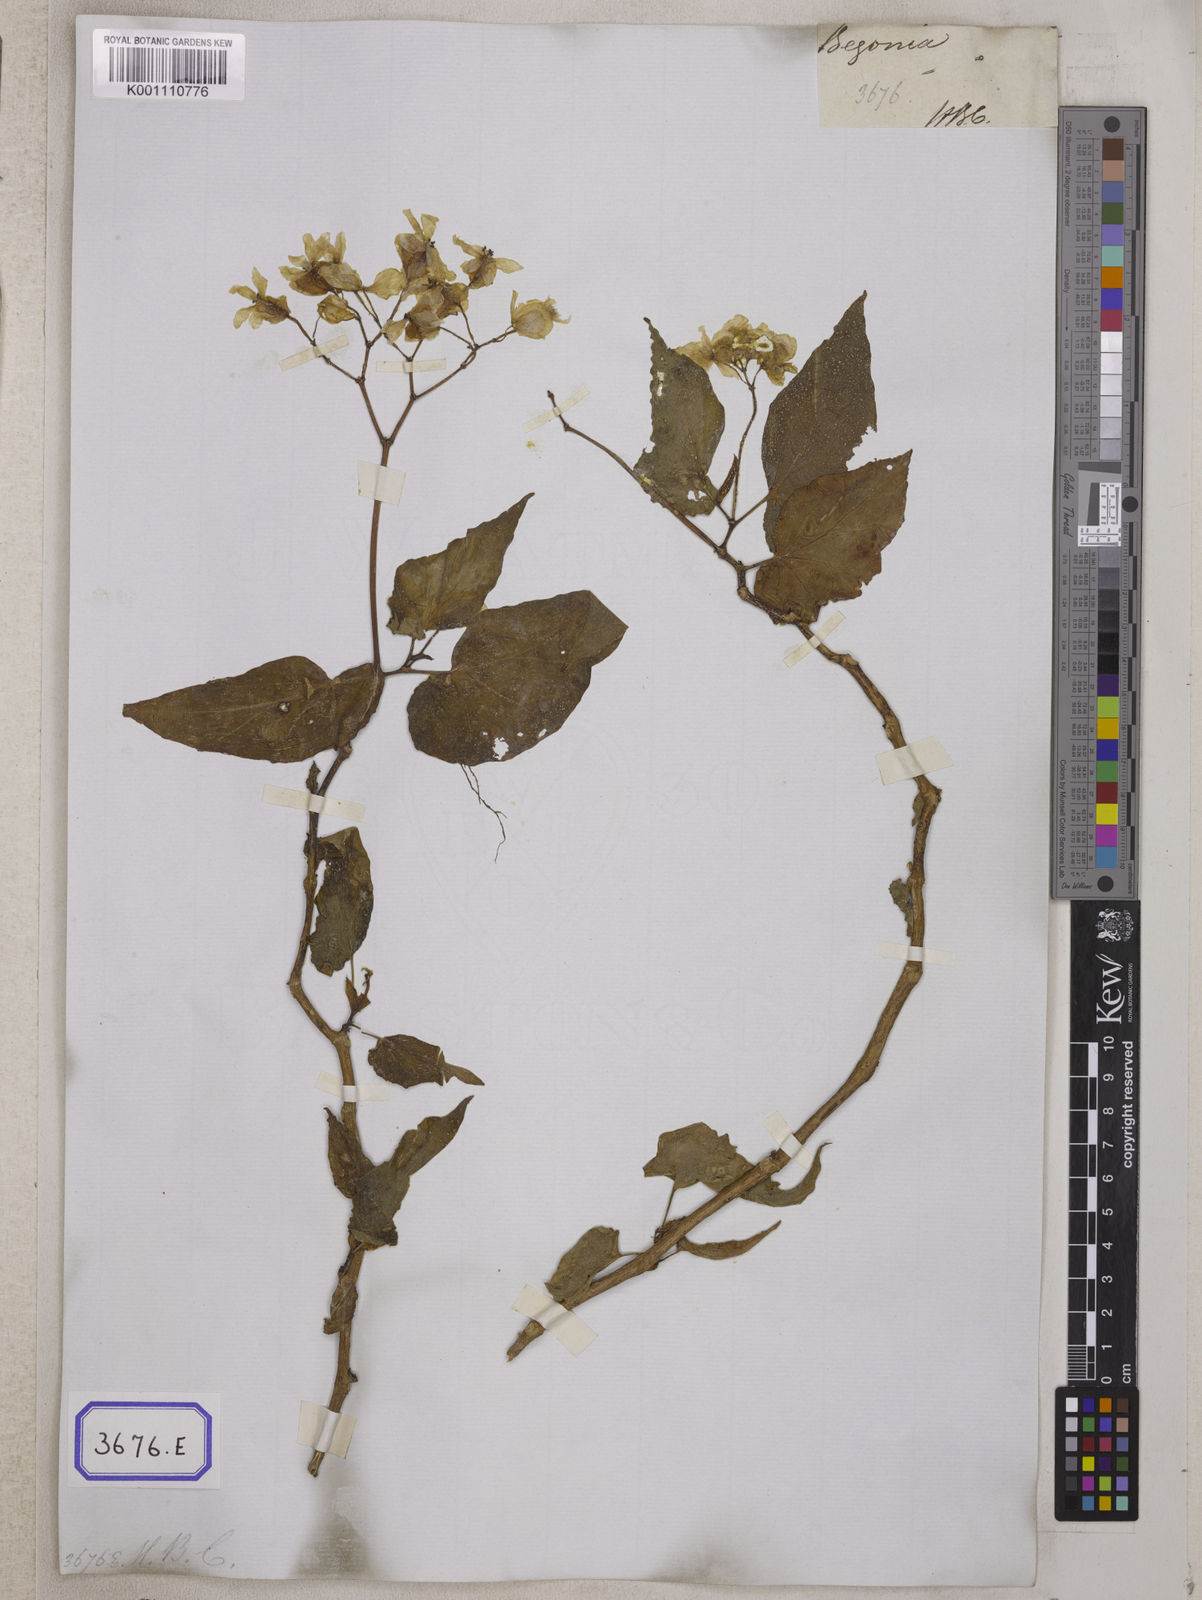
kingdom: Plantae
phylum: Tracheophyta
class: Magnoliopsida
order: Cucurbitales
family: Begoniaceae
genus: Begonia
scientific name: Begonia
